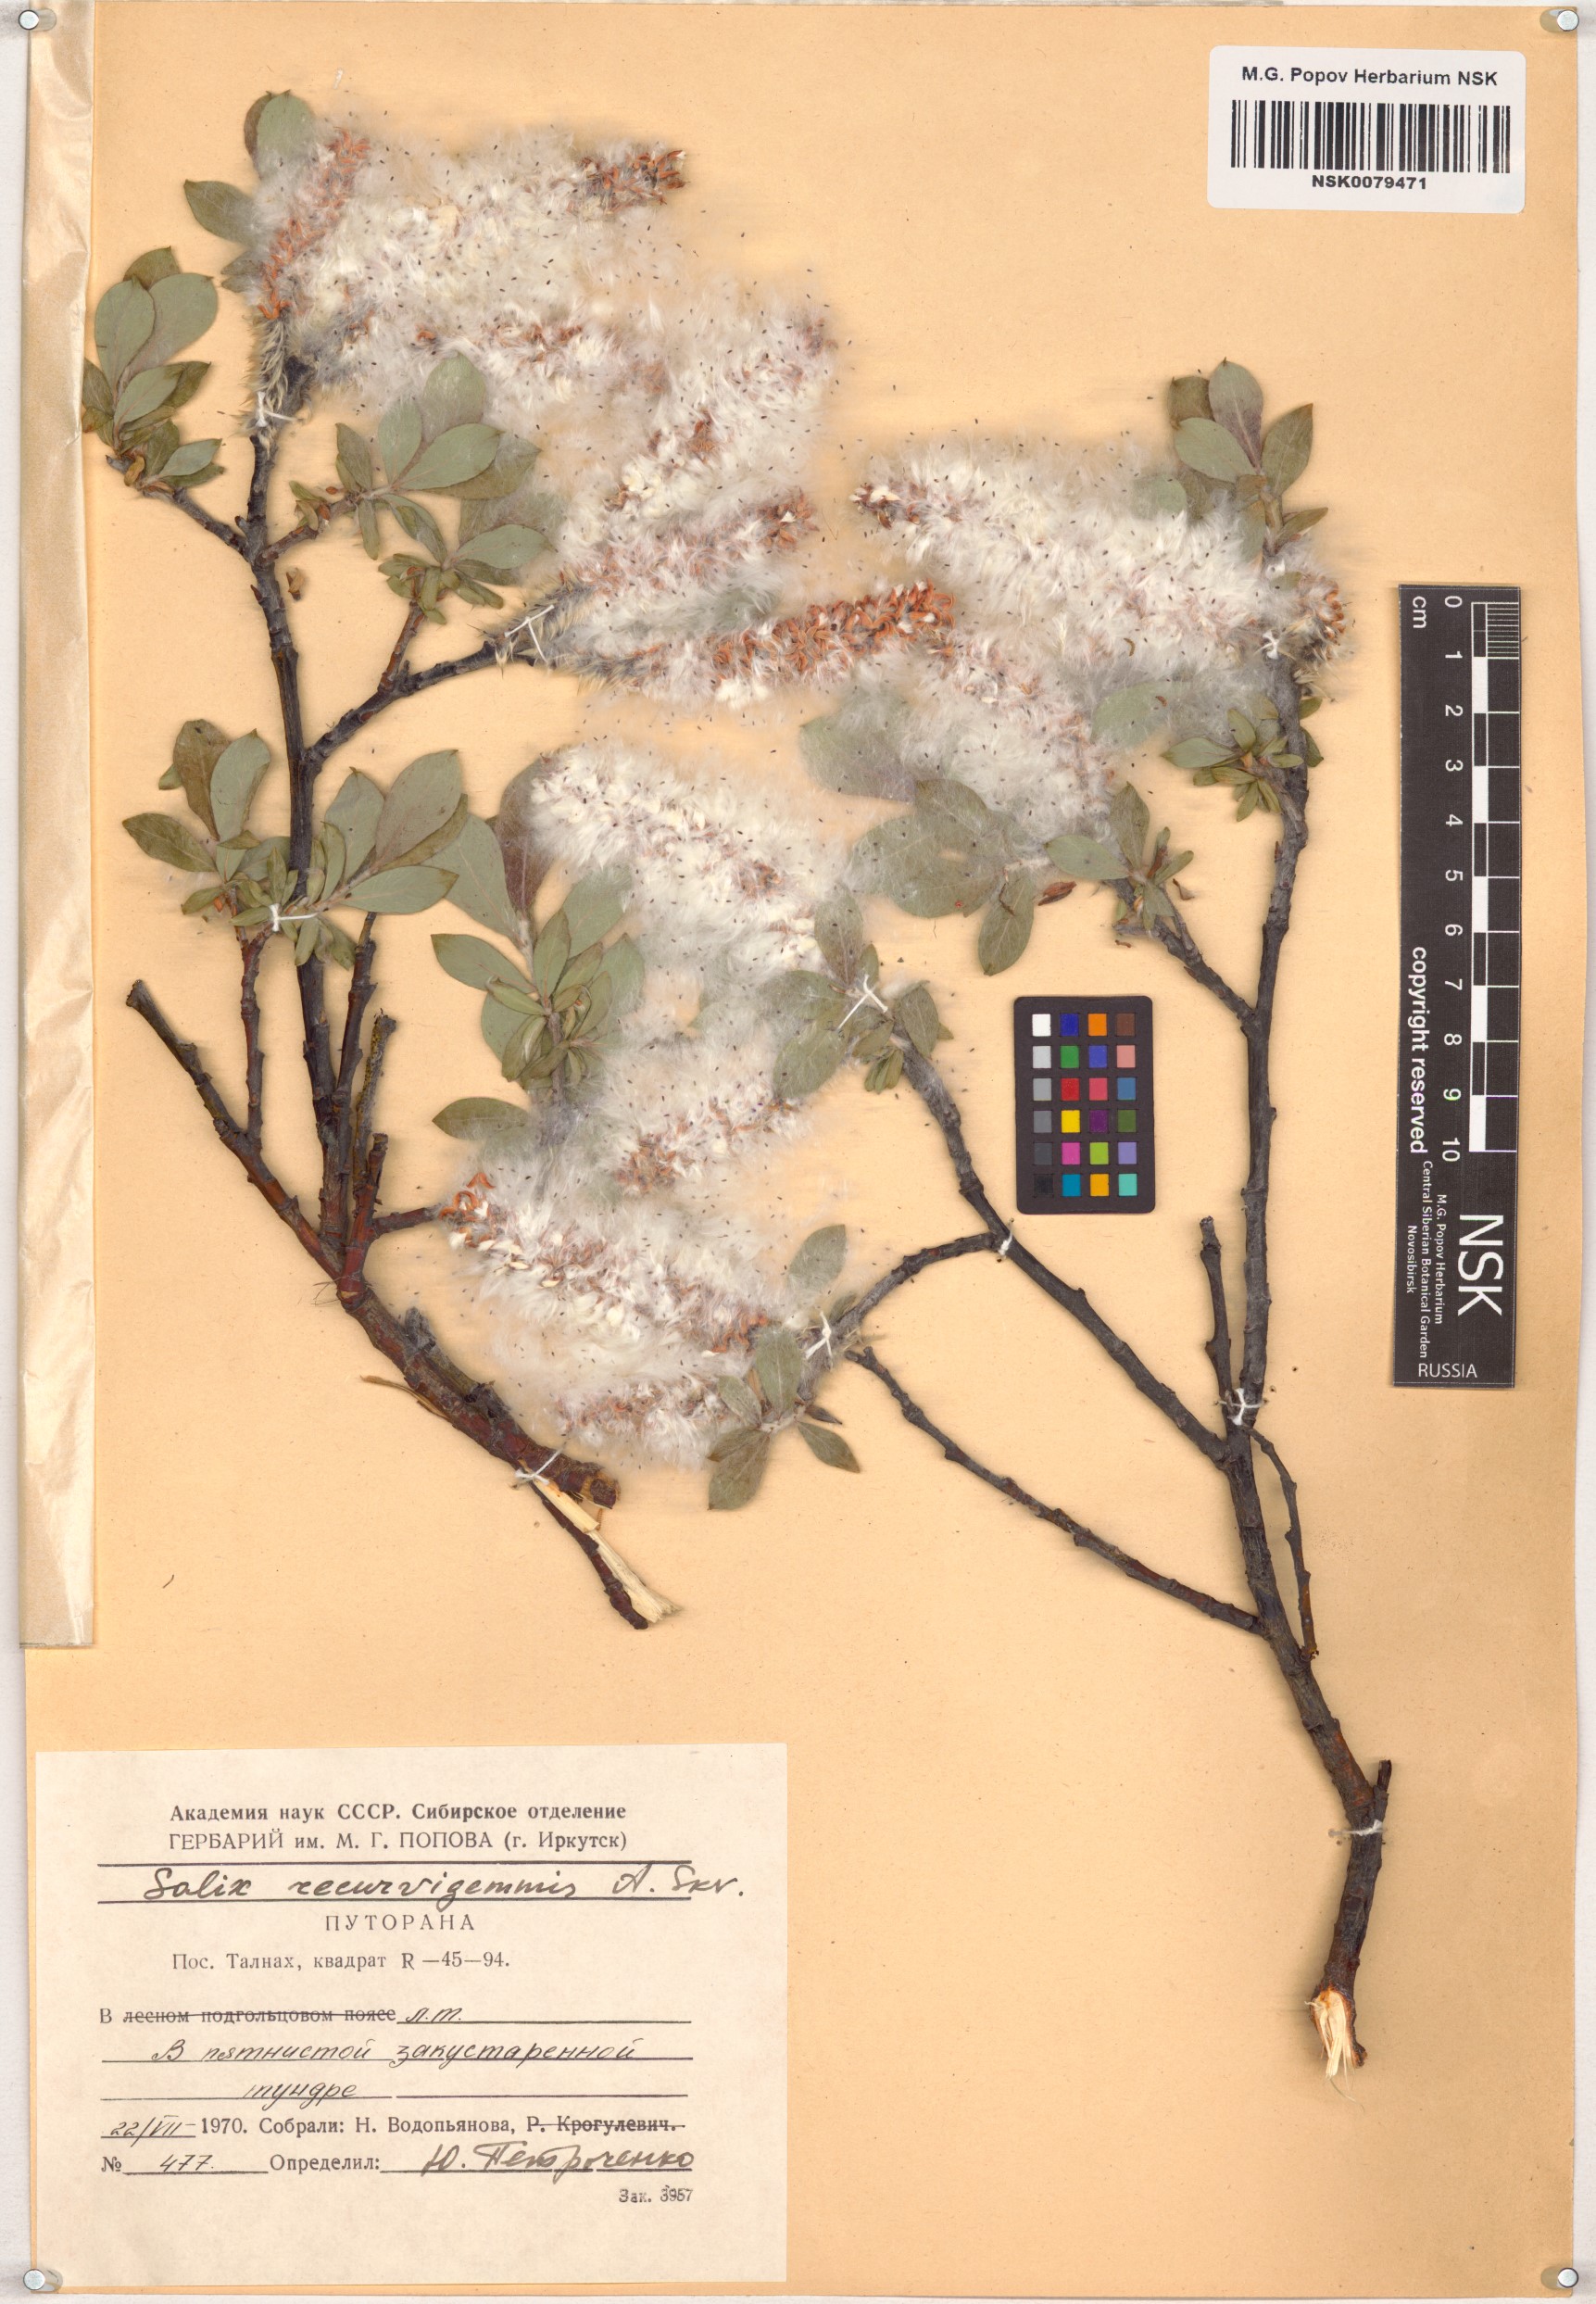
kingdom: Plantae
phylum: Tracheophyta
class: Magnoliopsida
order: Malpighiales
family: Salicaceae
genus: Salix
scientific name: Salix recurvigemmata
